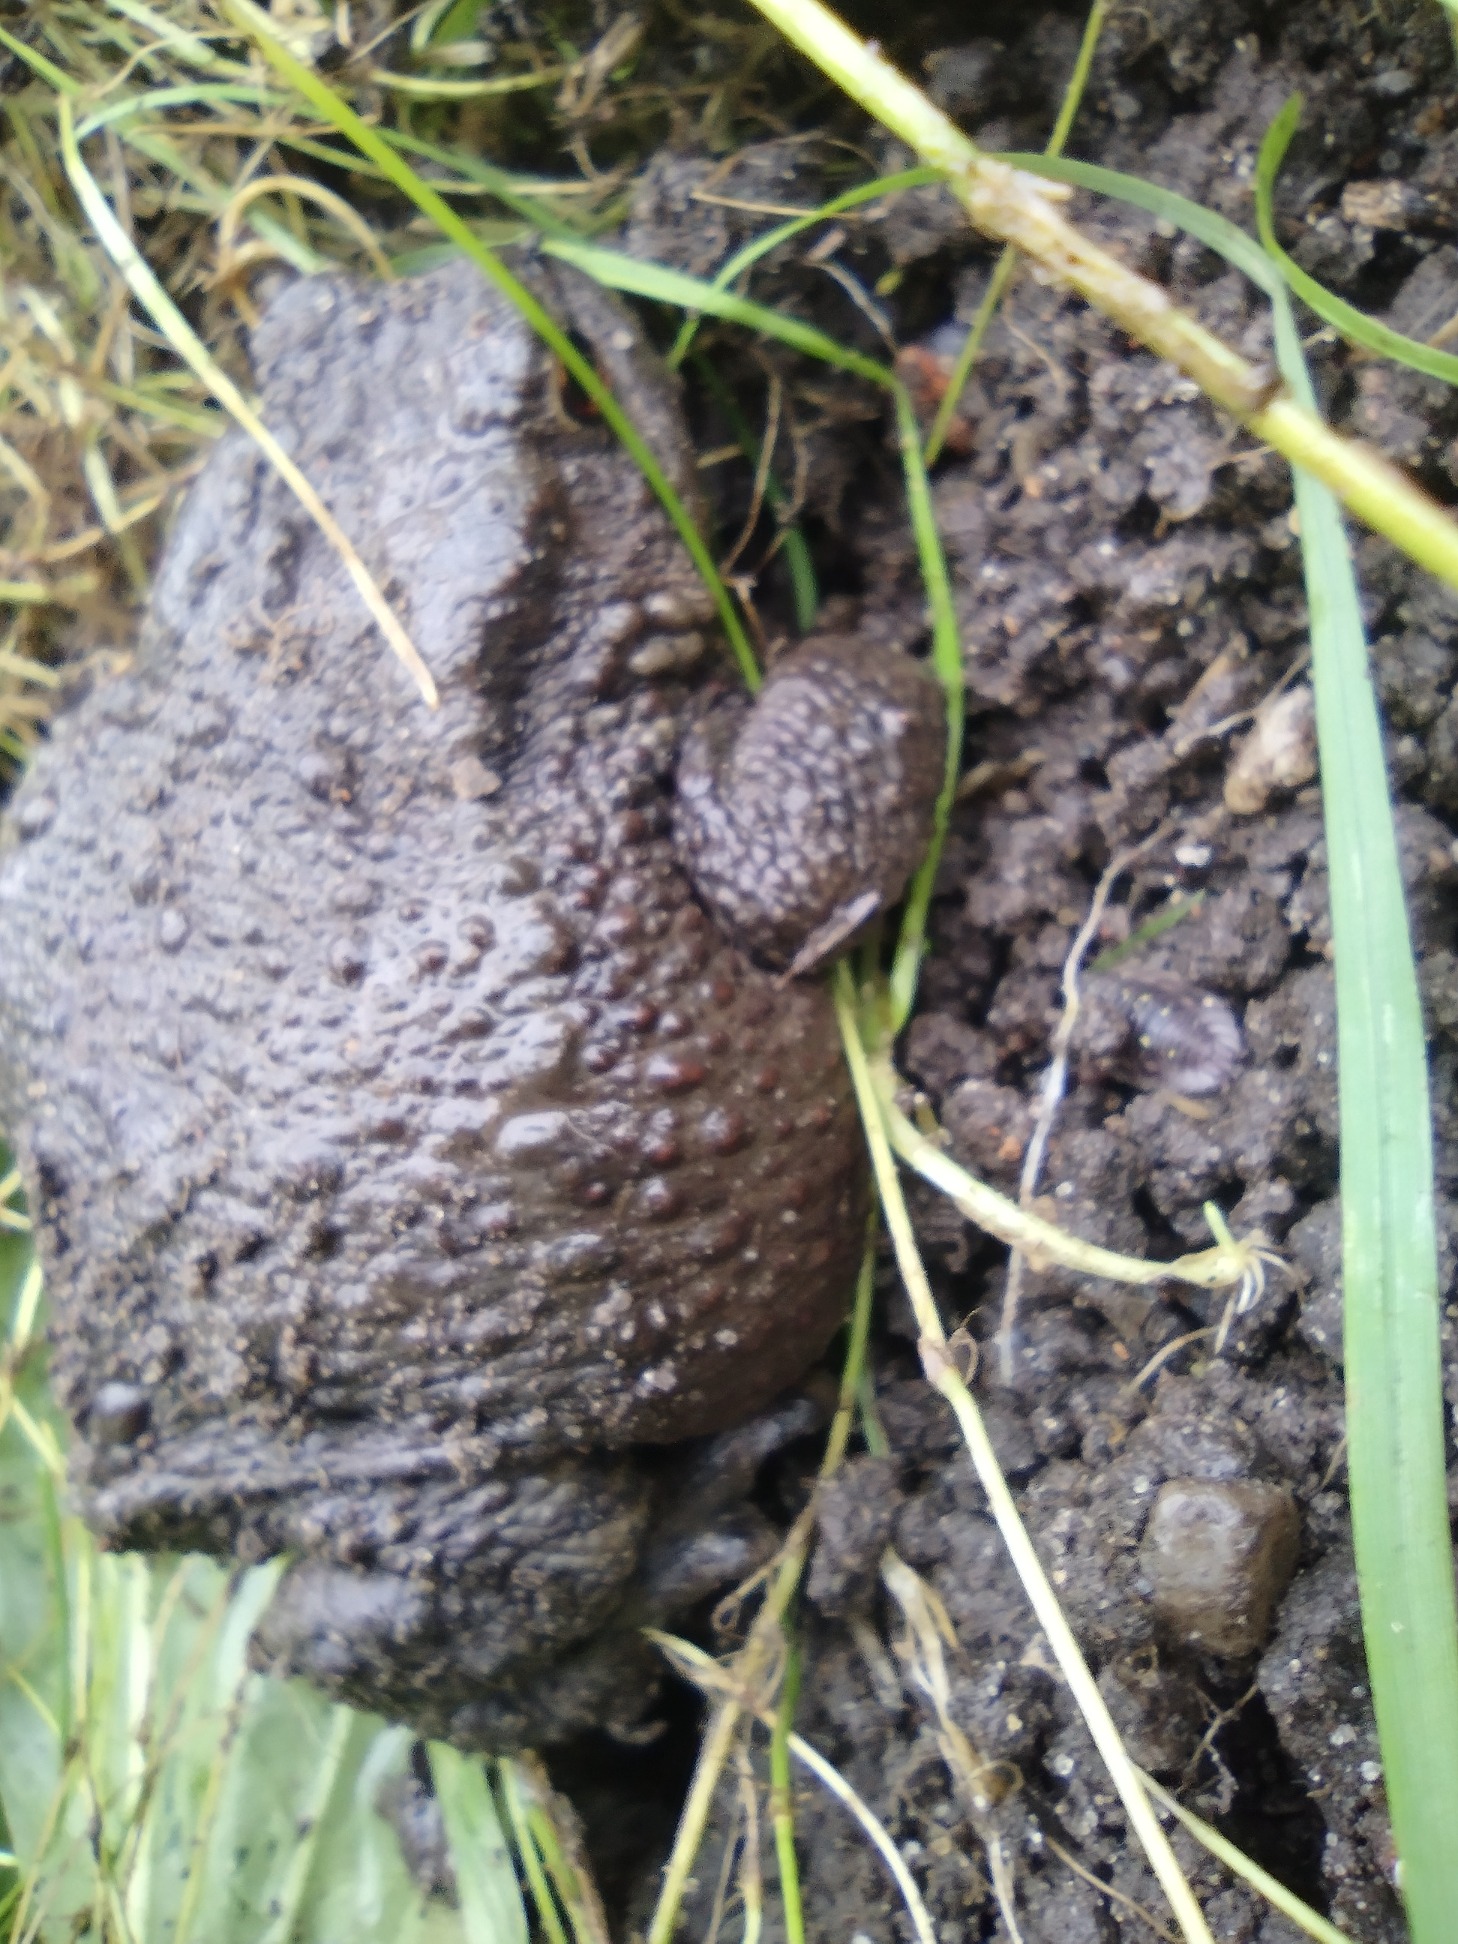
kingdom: Animalia
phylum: Chordata
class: Amphibia
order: Anura
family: Bufonidae
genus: Bufo
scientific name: Bufo bufo
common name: Skrubtudse
